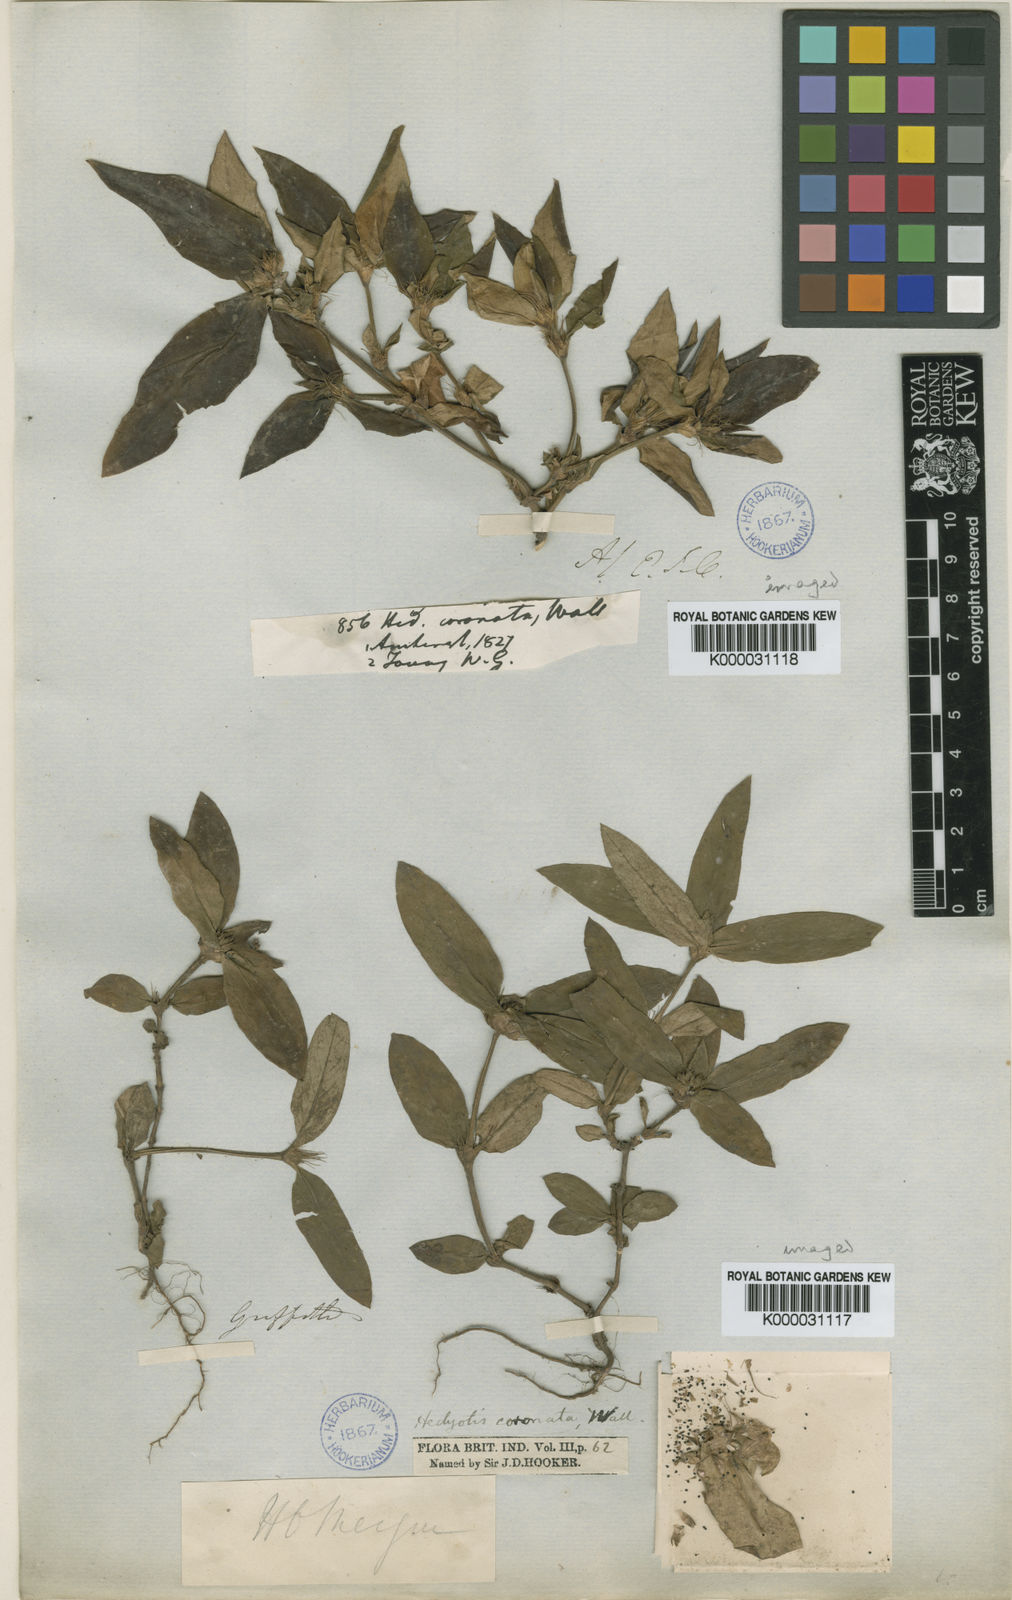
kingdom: Plantae
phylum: Tracheophyta
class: Magnoliopsida
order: Gentianales
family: Rubiaceae
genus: Hedyotis
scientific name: Hedyotis
